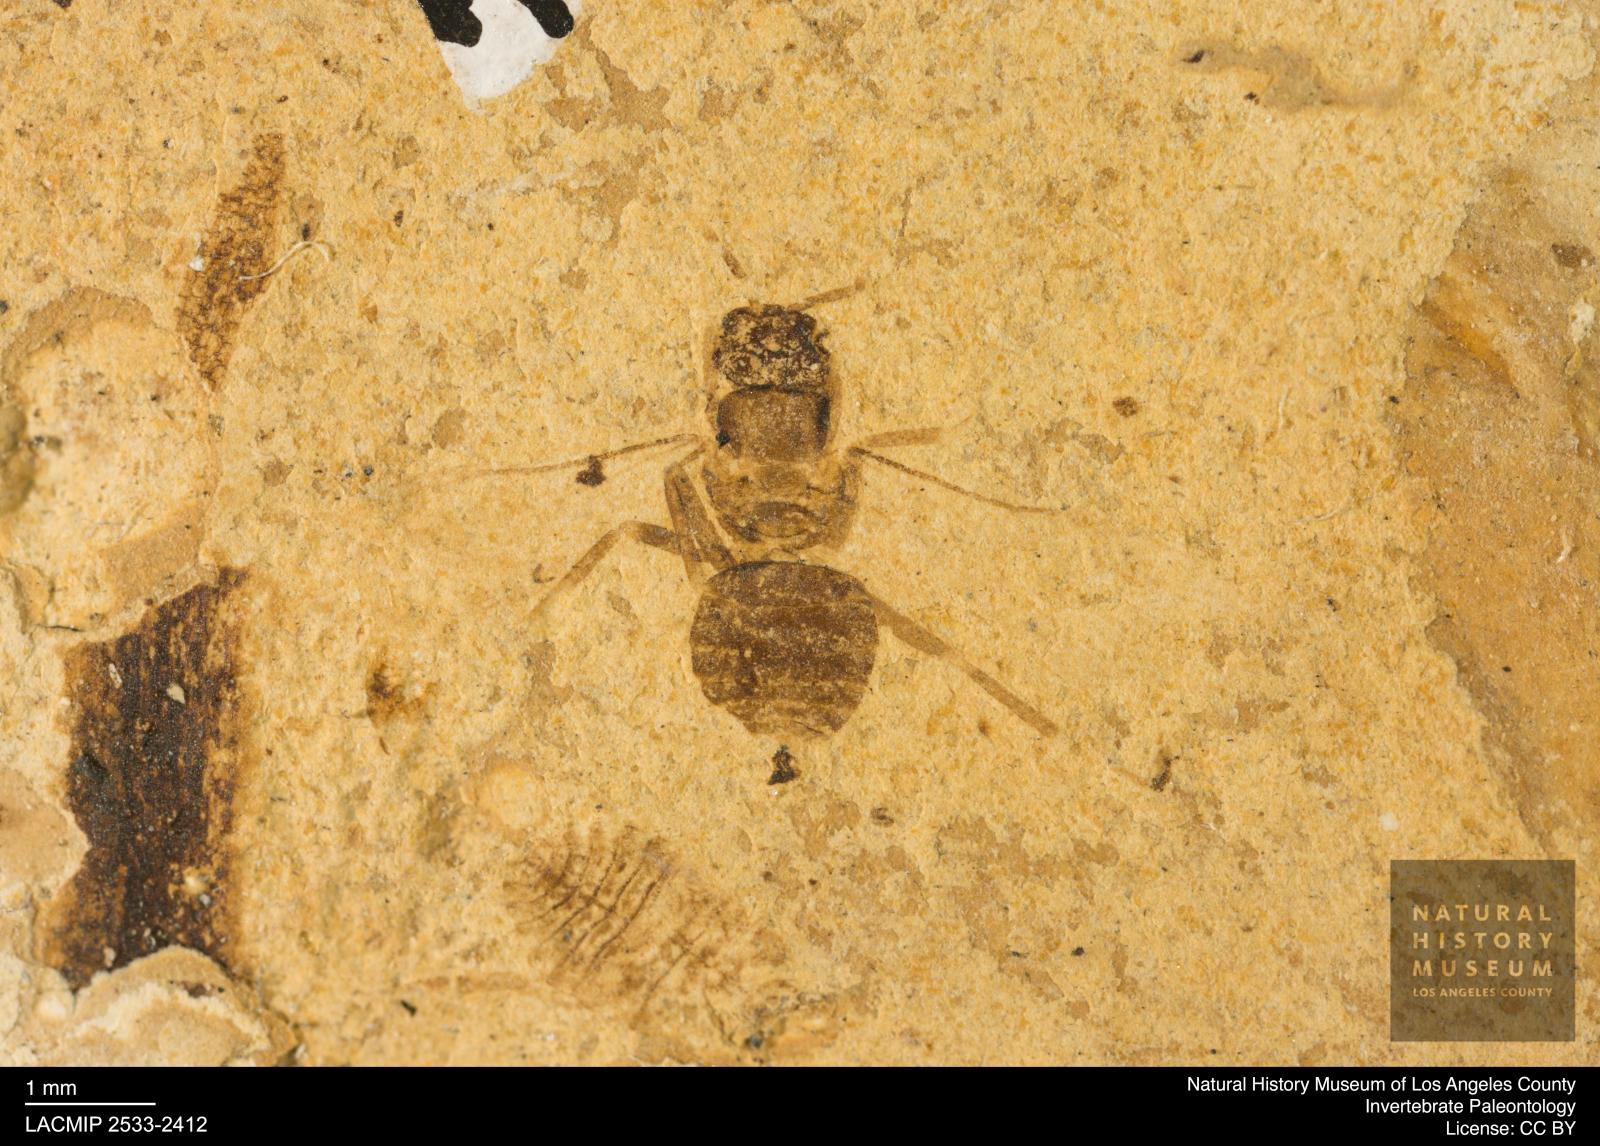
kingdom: Animalia
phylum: Arthropoda
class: Insecta
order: Hymenoptera
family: Formicidae
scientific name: Formicidae
